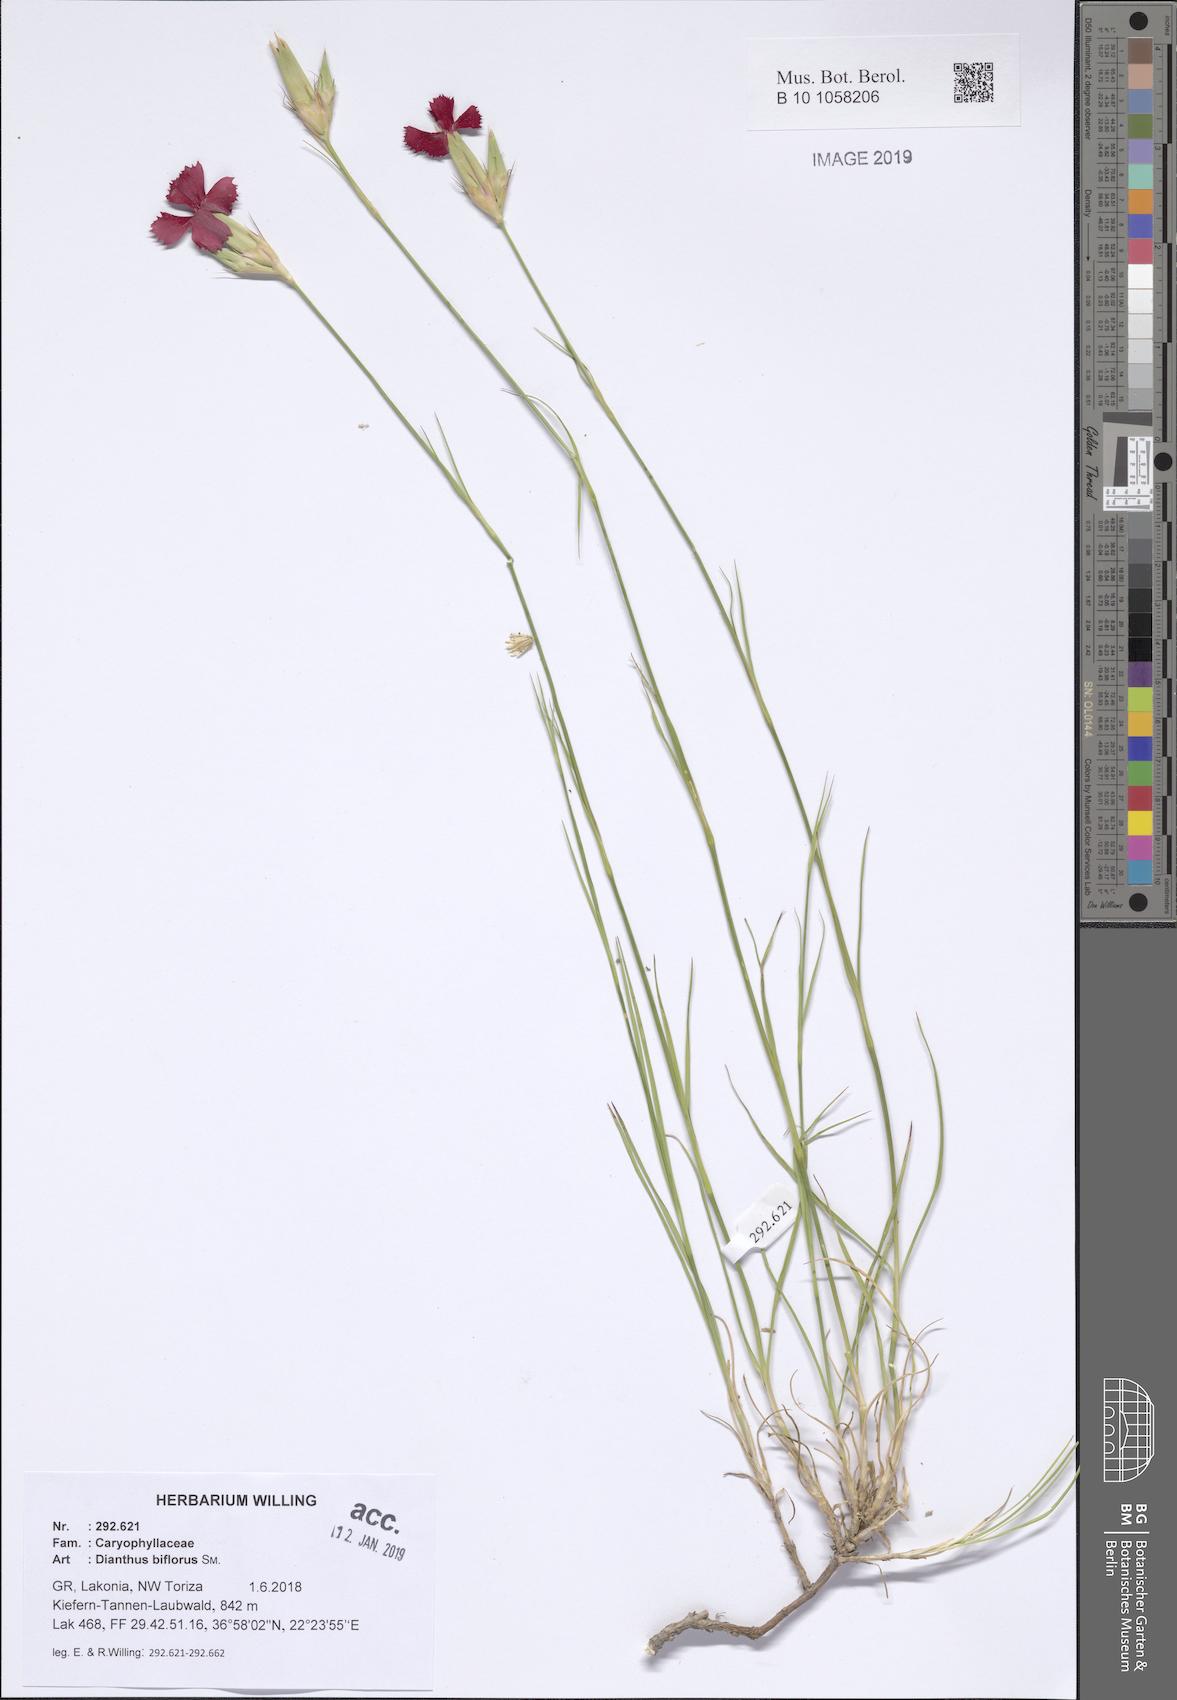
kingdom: Plantae
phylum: Tracheophyta
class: Magnoliopsida
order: Caryophyllales
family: Caryophyllaceae
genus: Dianthus
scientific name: Dianthus biflorus
